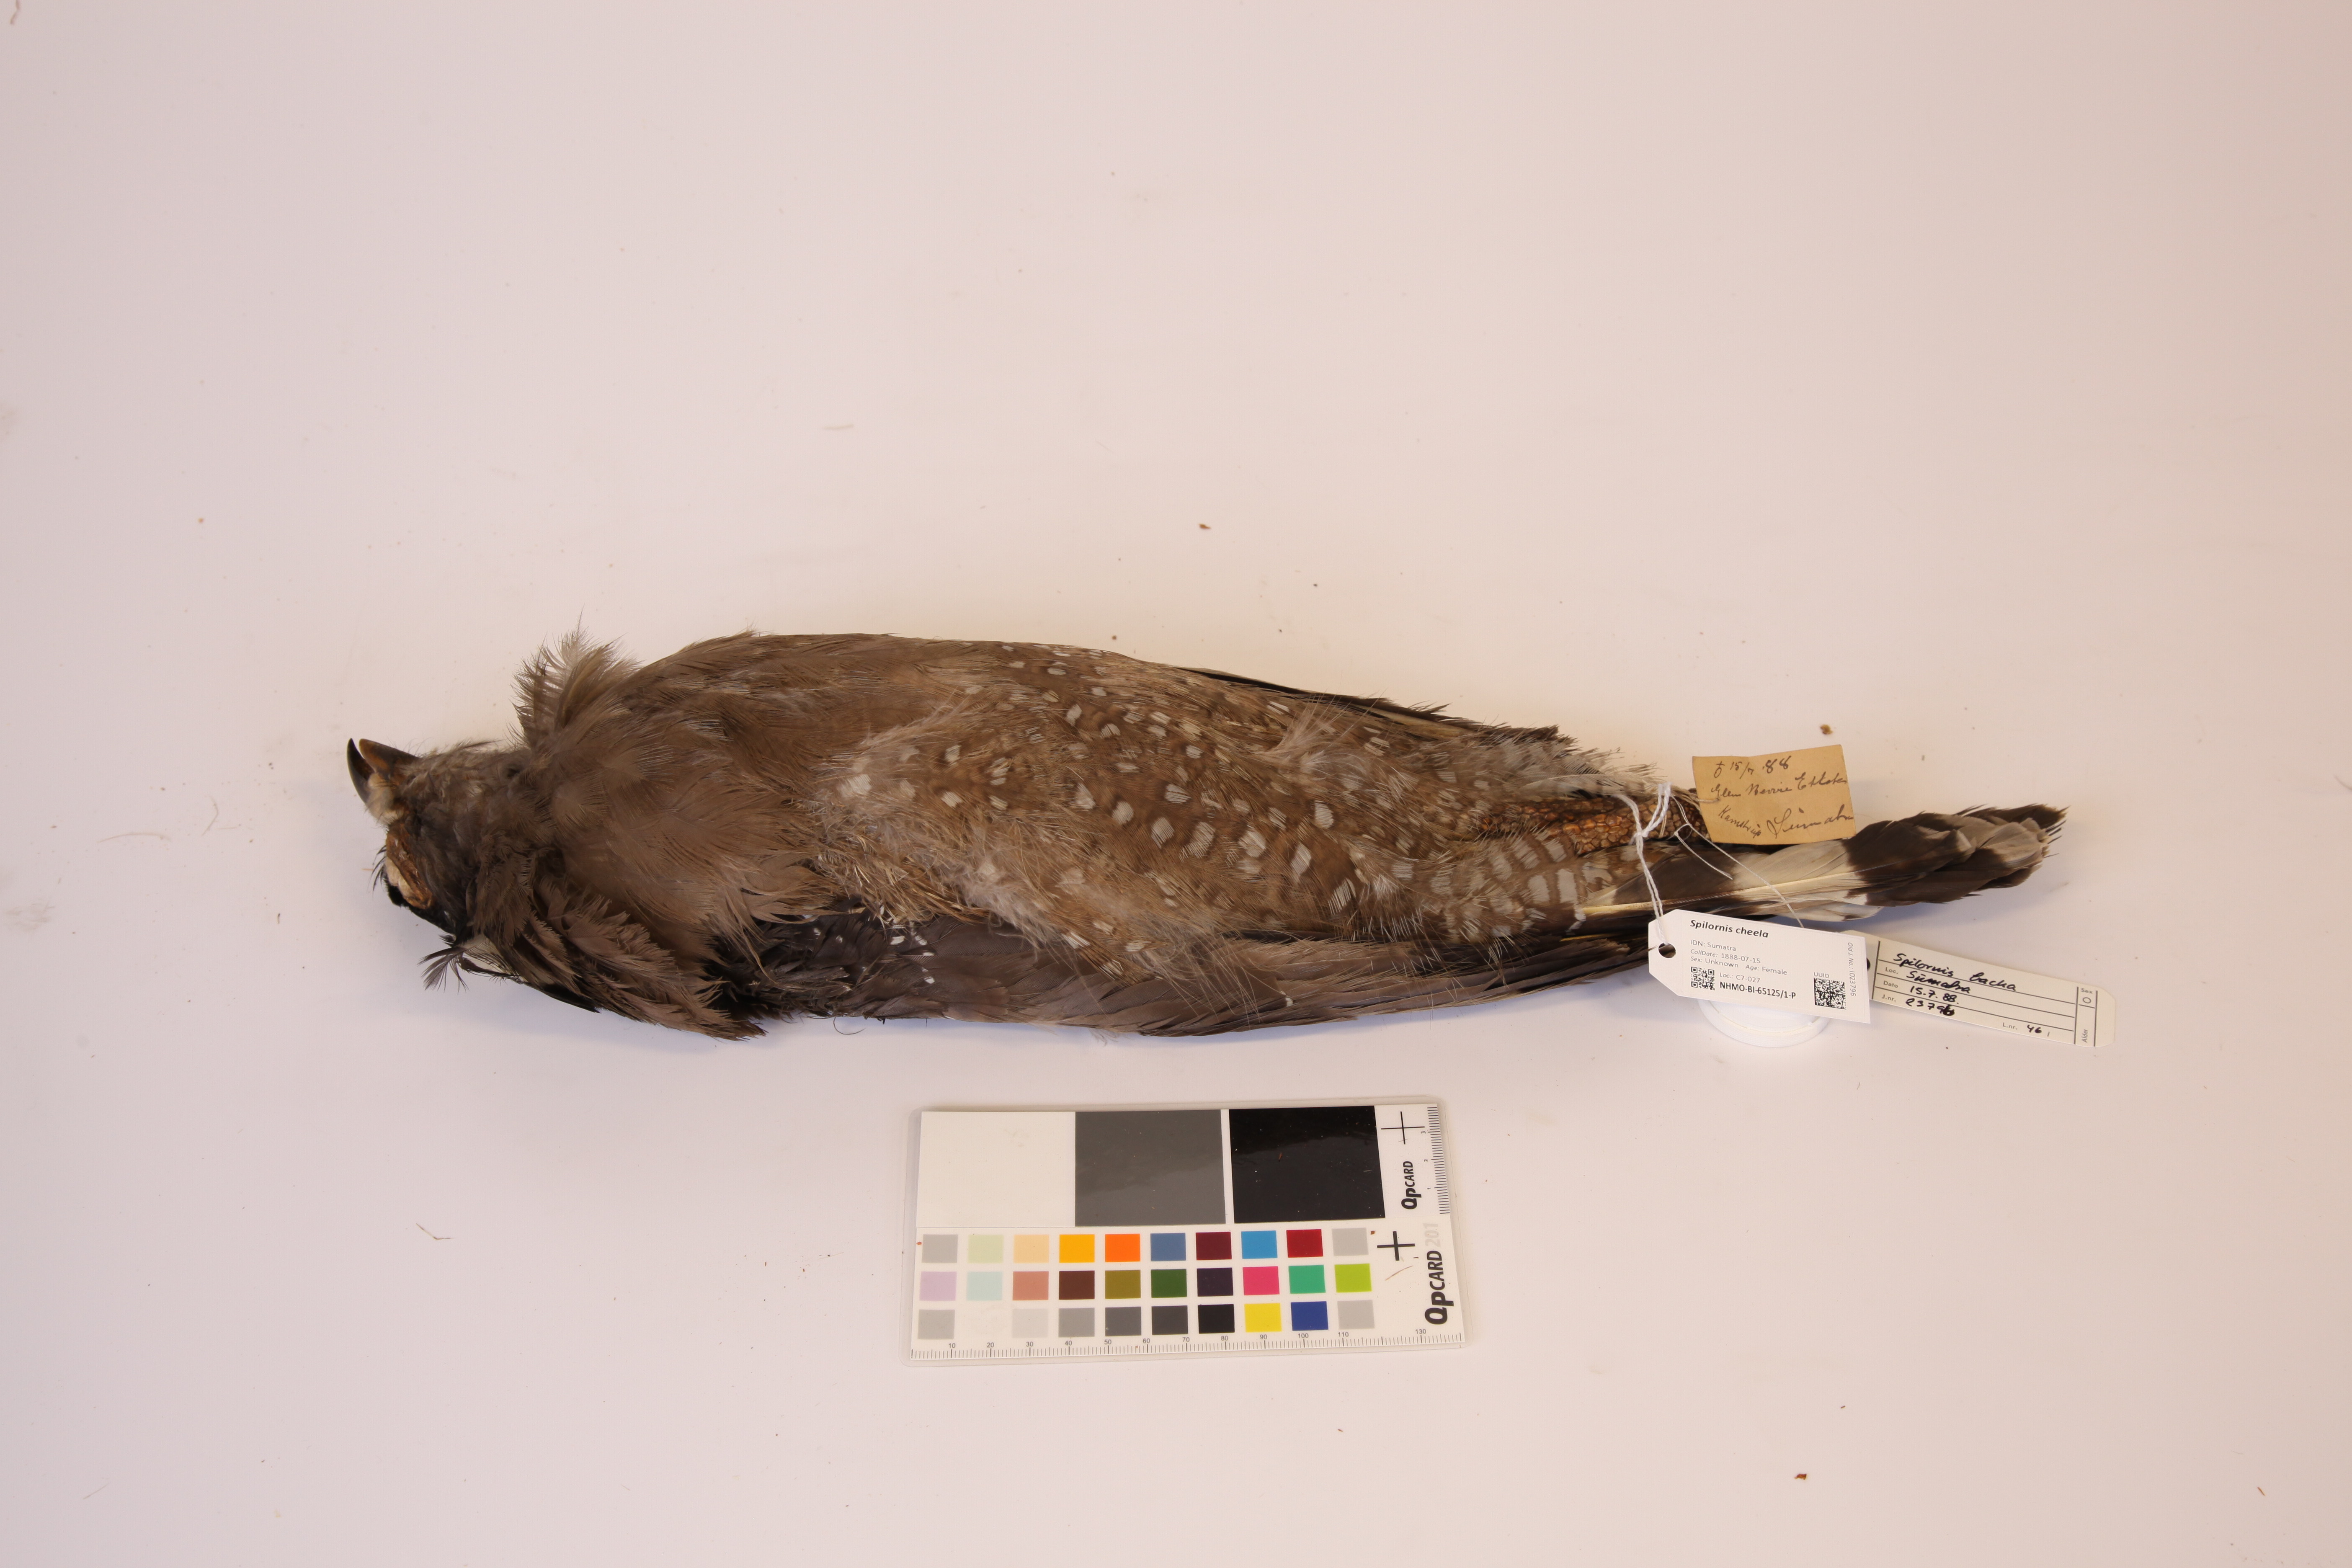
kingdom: Animalia
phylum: Chordata
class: Aves
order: Accipitriformes
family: Accipitridae
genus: Spilornis
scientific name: Spilornis cheela
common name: Crested serpent eagle
